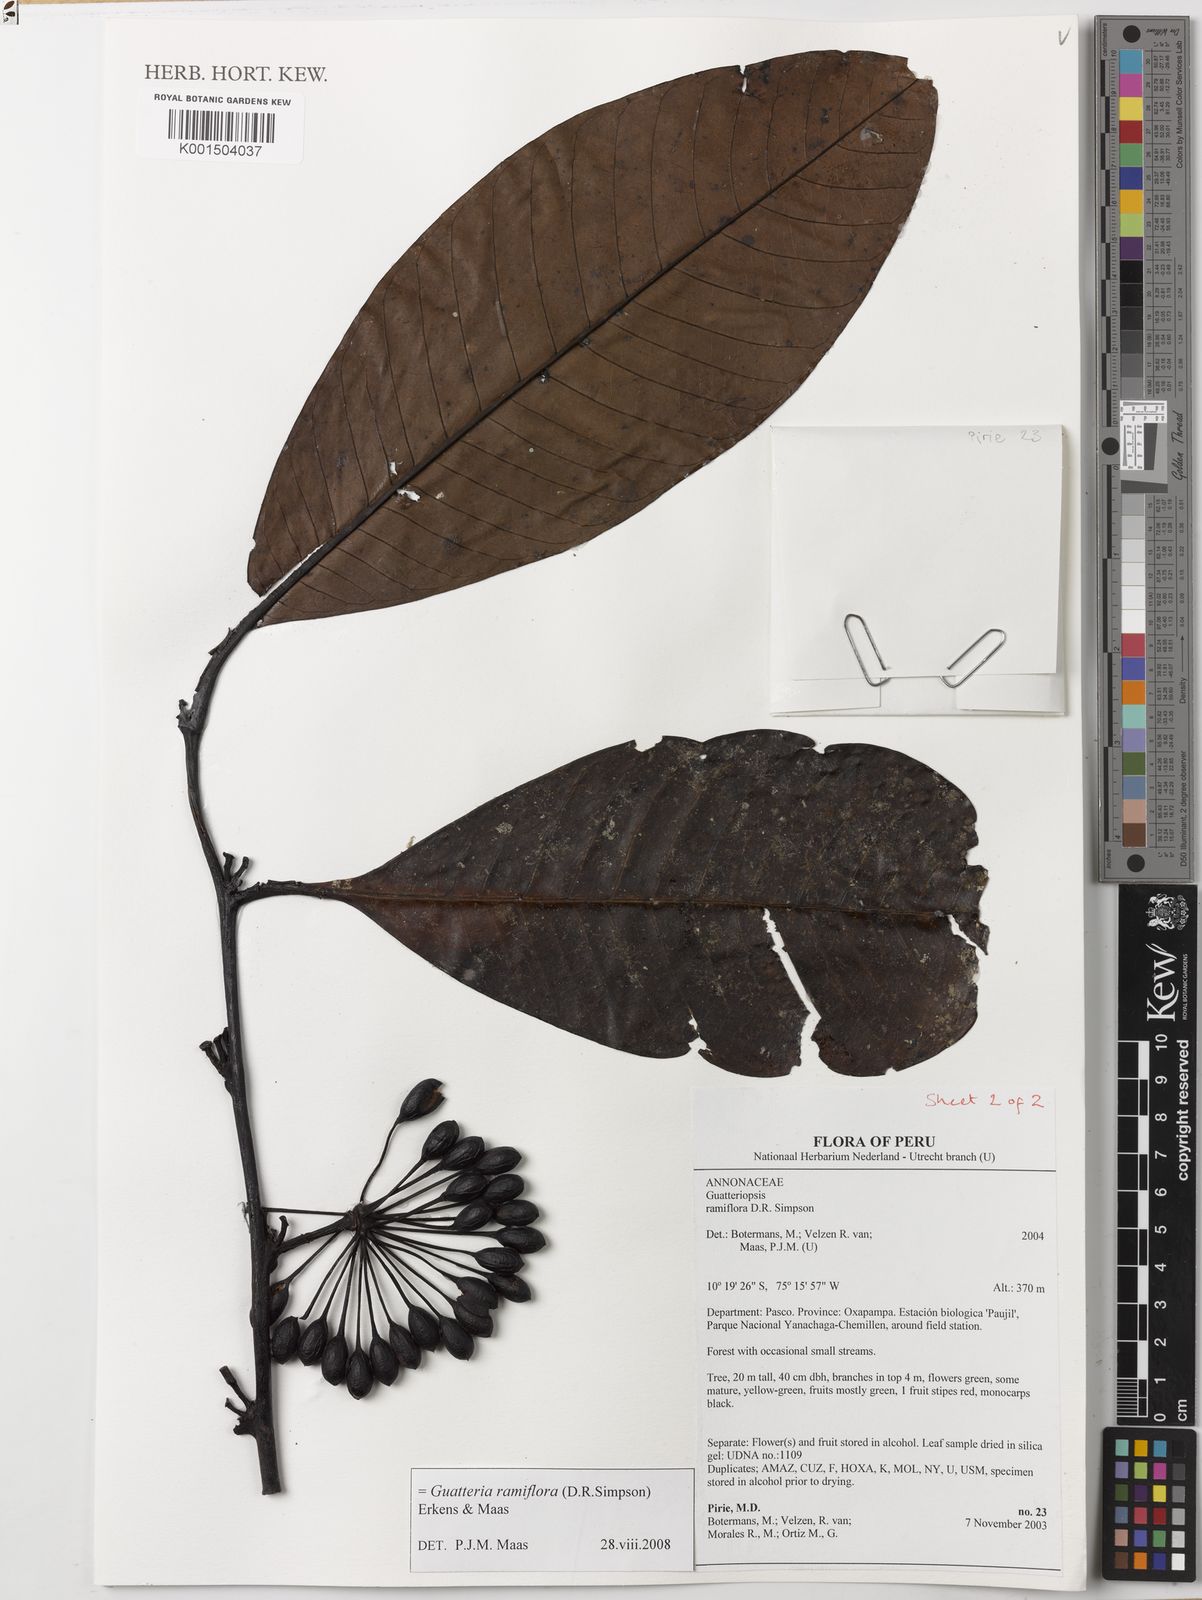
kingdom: Plantae
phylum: Tracheophyta
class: Magnoliopsida
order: Magnoliales
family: Annonaceae
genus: Guatteria
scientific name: Guatteria ramiflora
